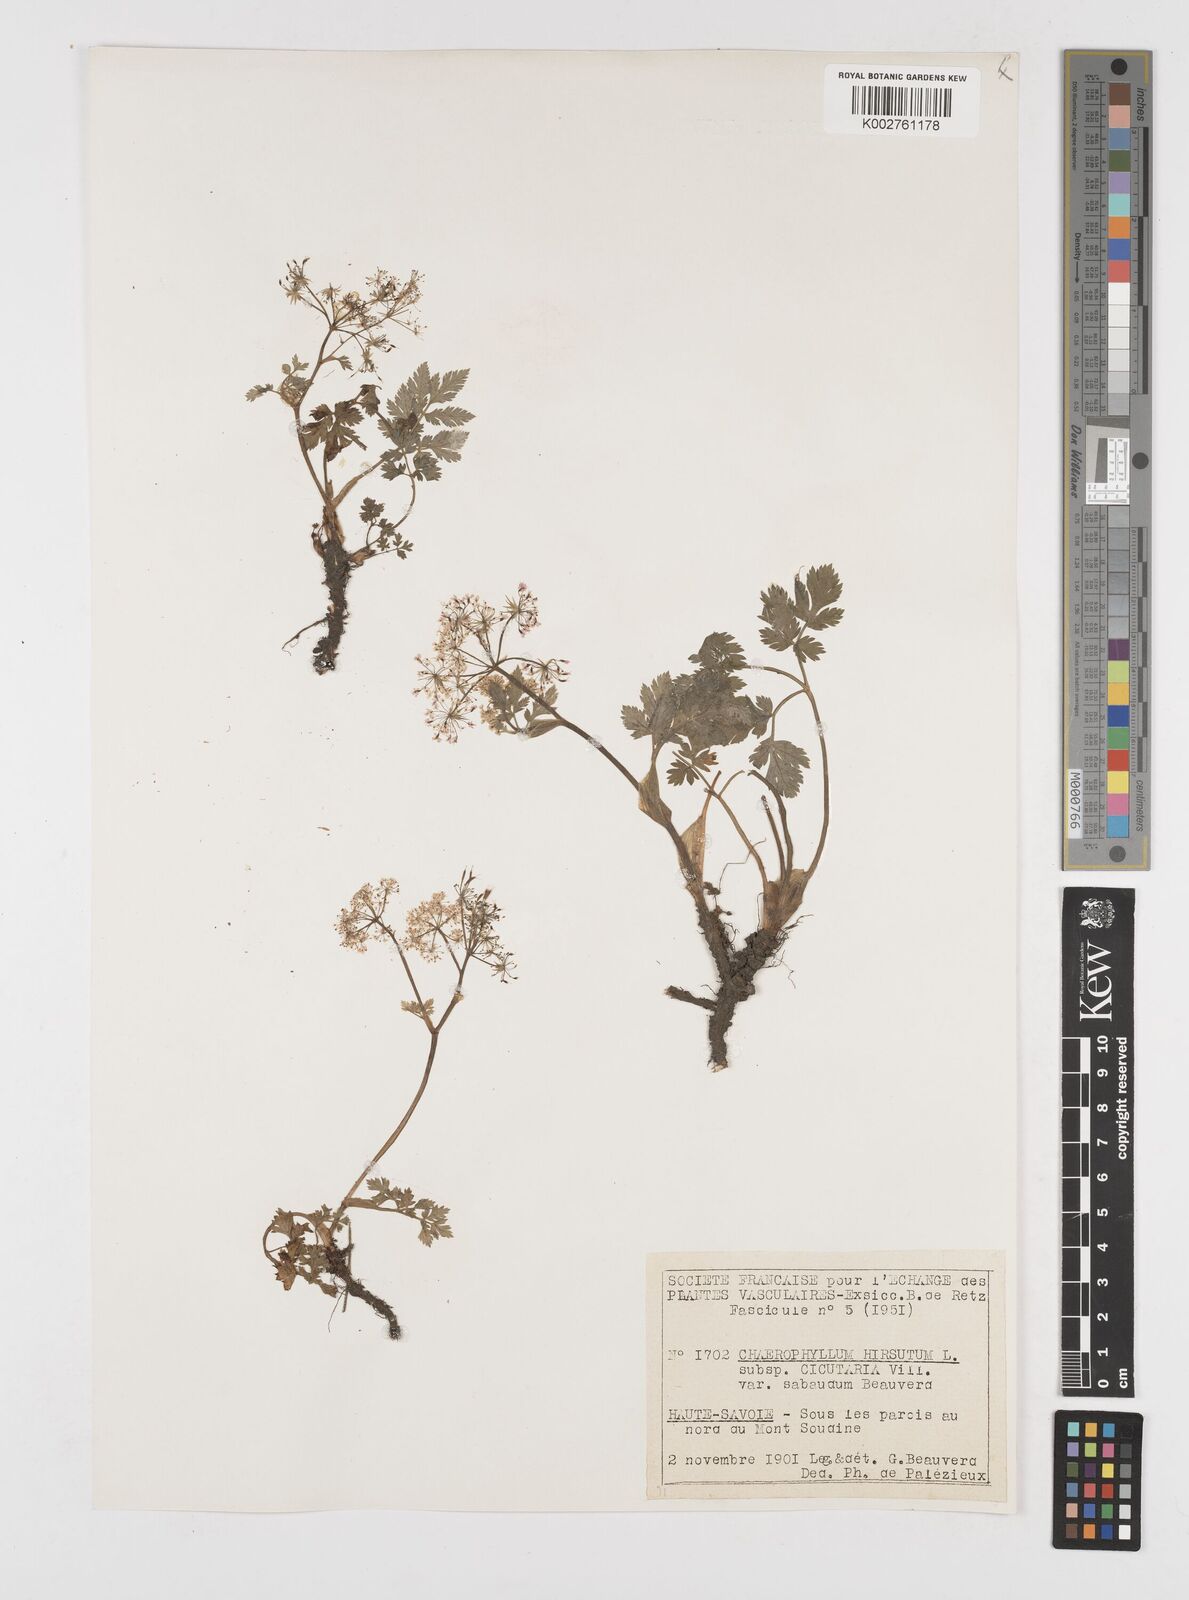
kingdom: Plantae
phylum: Tracheophyta
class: Magnoliopsida
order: Apiales
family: Apiaceae
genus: Chaerophyllum
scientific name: Chaerophyllum hirsutum
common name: Hairy chervil
